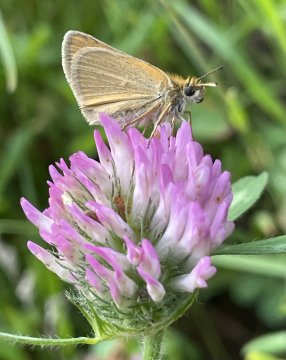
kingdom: Animalia
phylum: Arthropoda
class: Insecta
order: Lepidoptera
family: Hesperiidae
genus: Thymelicus
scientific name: Thymelicus lineola
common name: European Skipper
